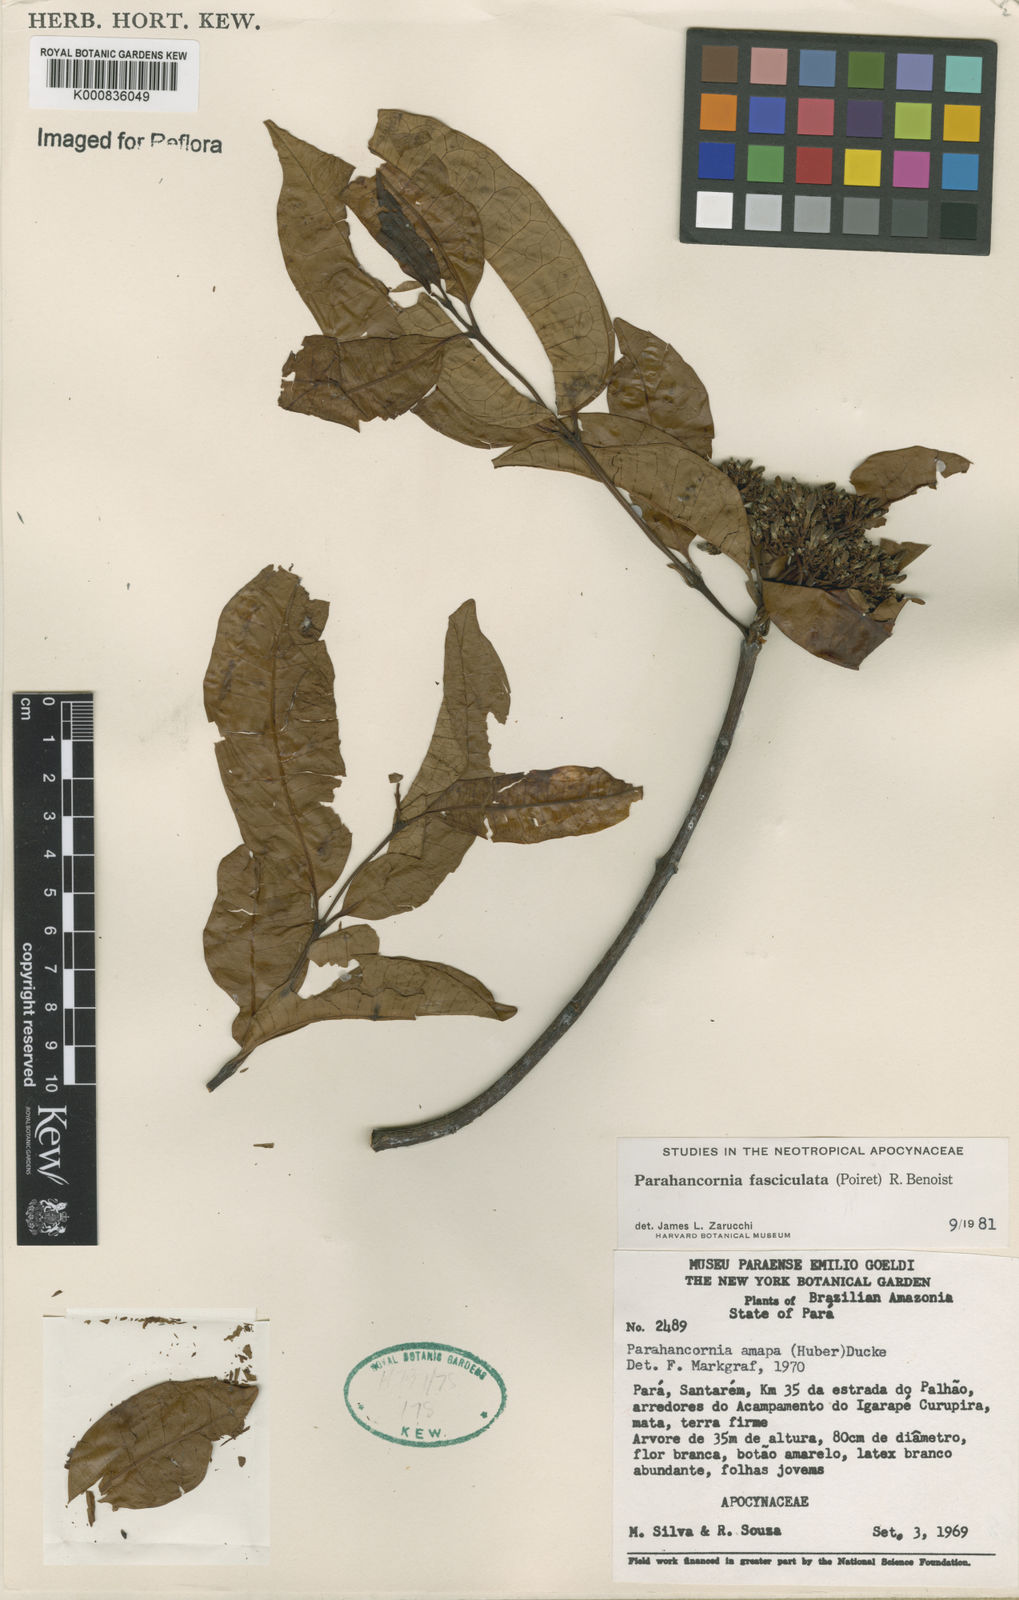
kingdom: Plantae
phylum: Tracheophyta
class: Magnoliopsida
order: Gentianales
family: Apocynaceae
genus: Parahancornia
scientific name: Parahancornia fasciculata
